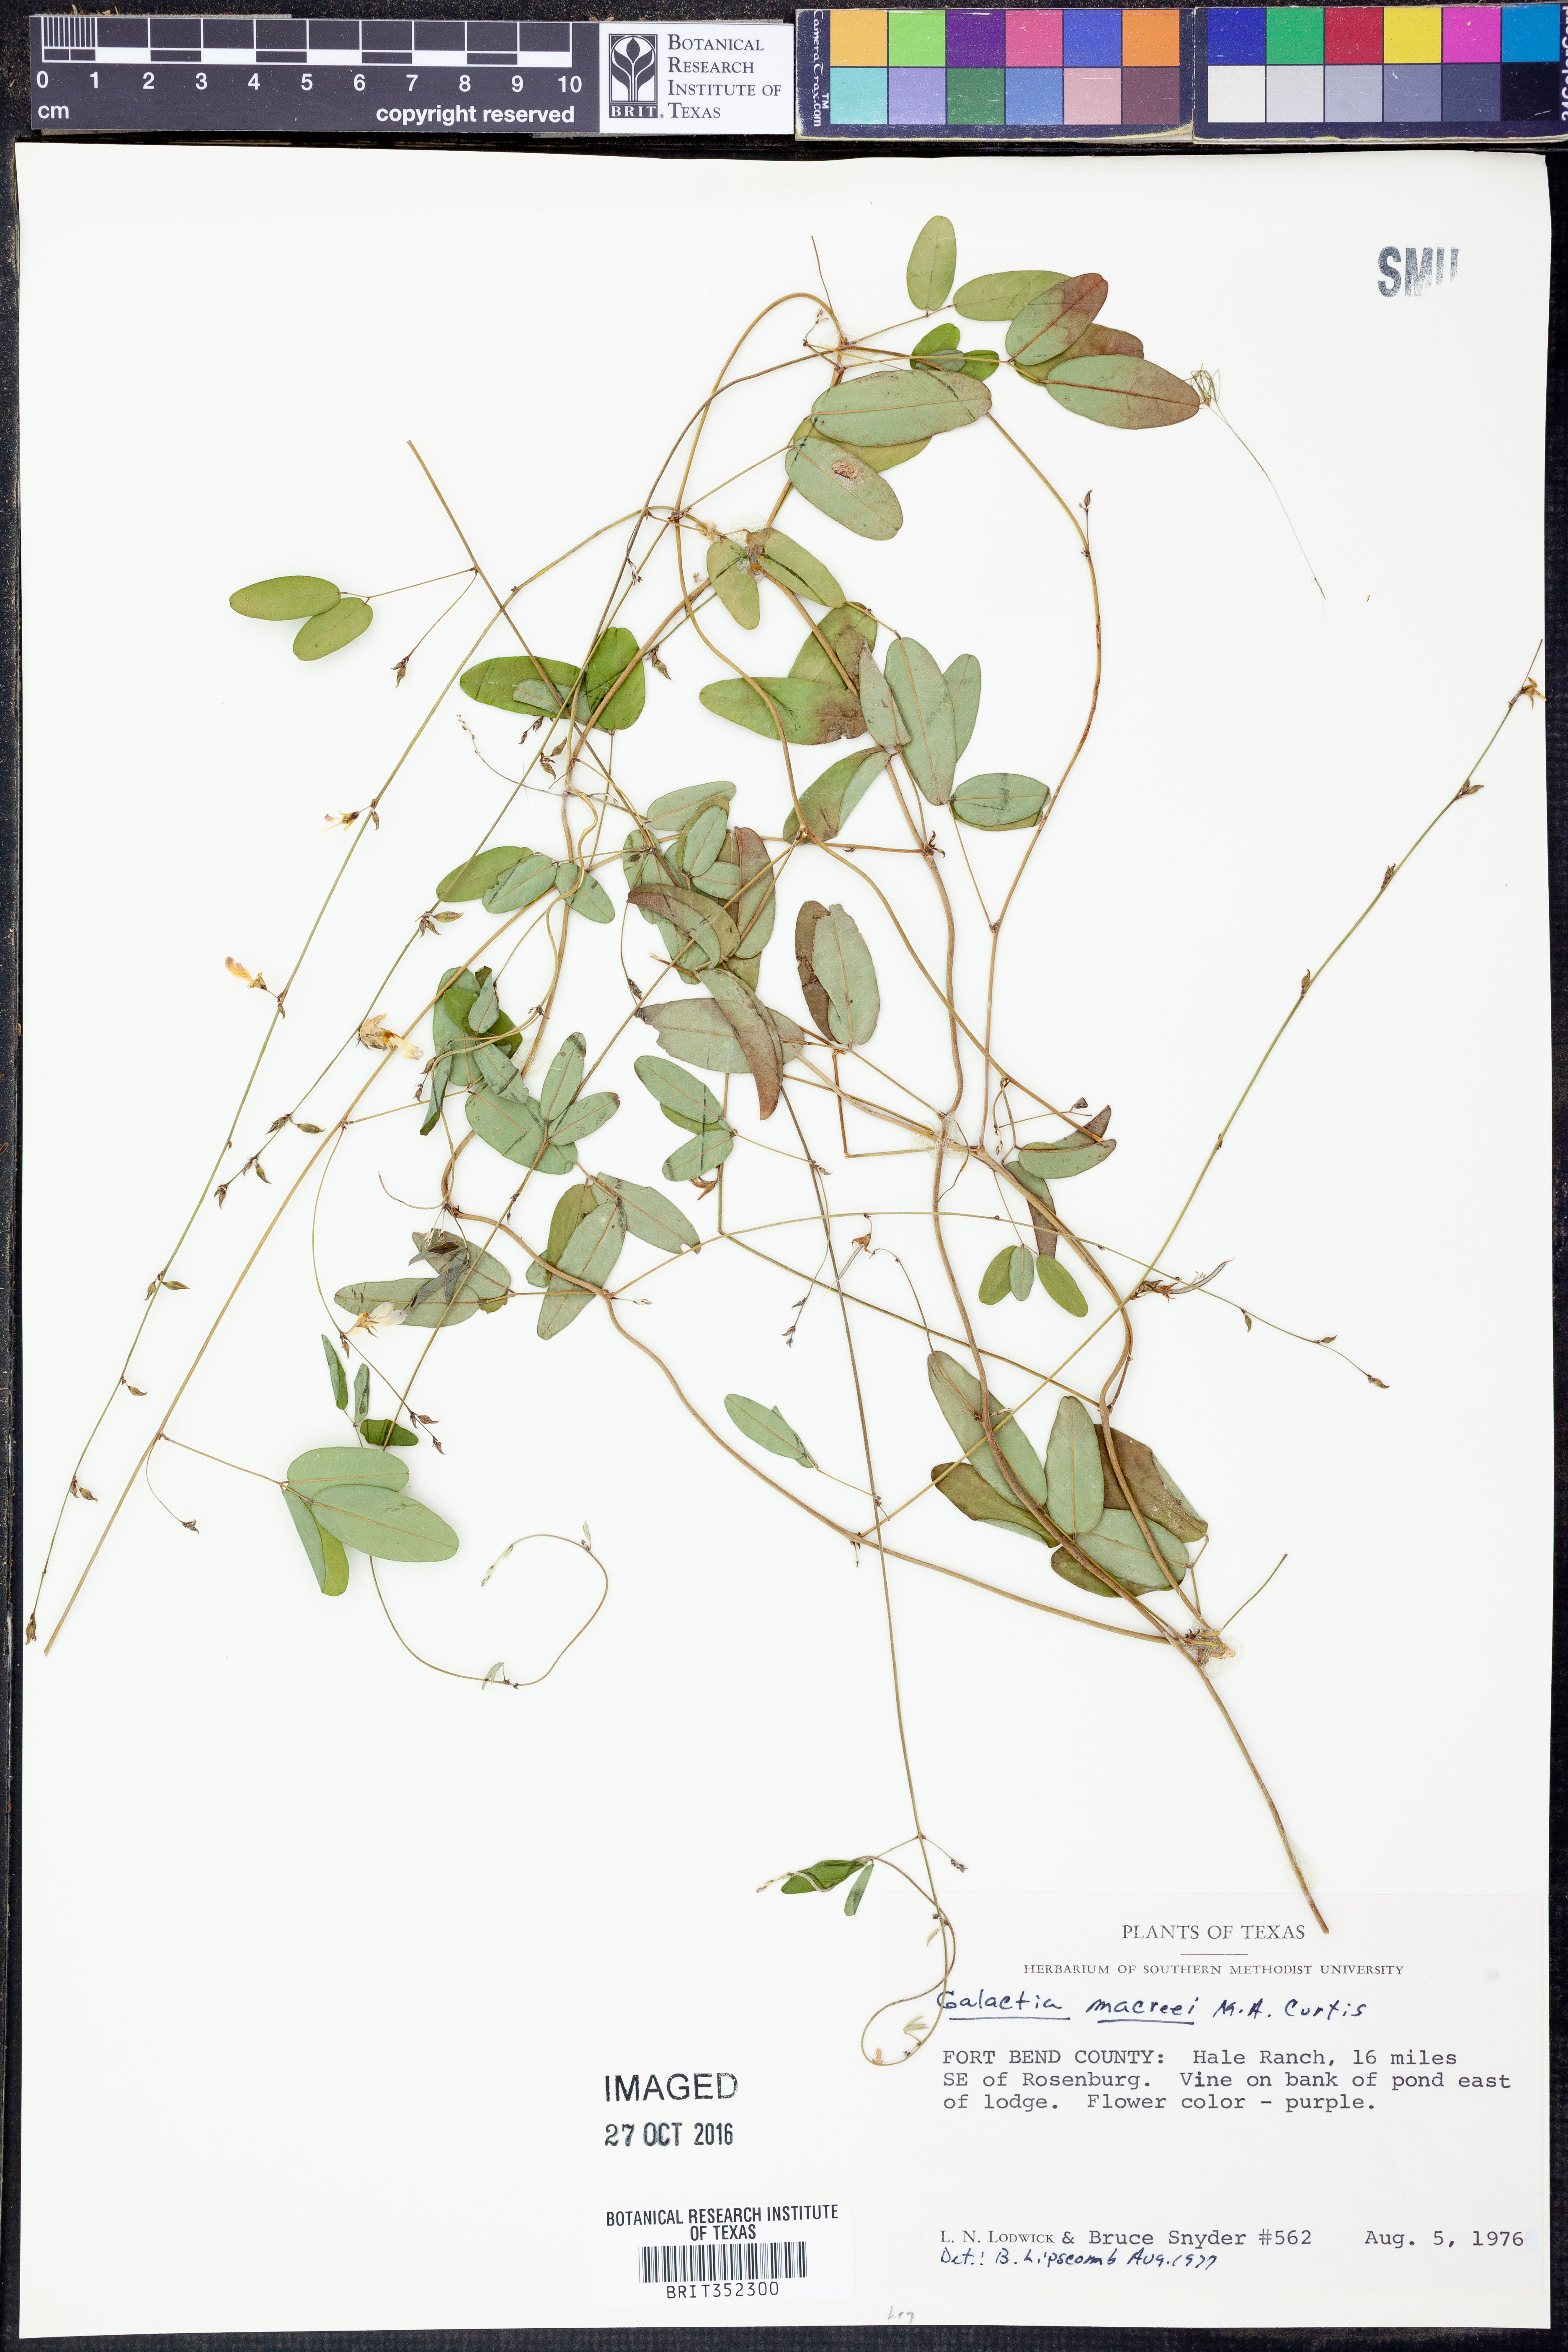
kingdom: Plantae
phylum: Tracheophyta
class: Magnoliopsida
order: Fabales
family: Fabaceae
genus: Galactia
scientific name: Galactia volubilis
